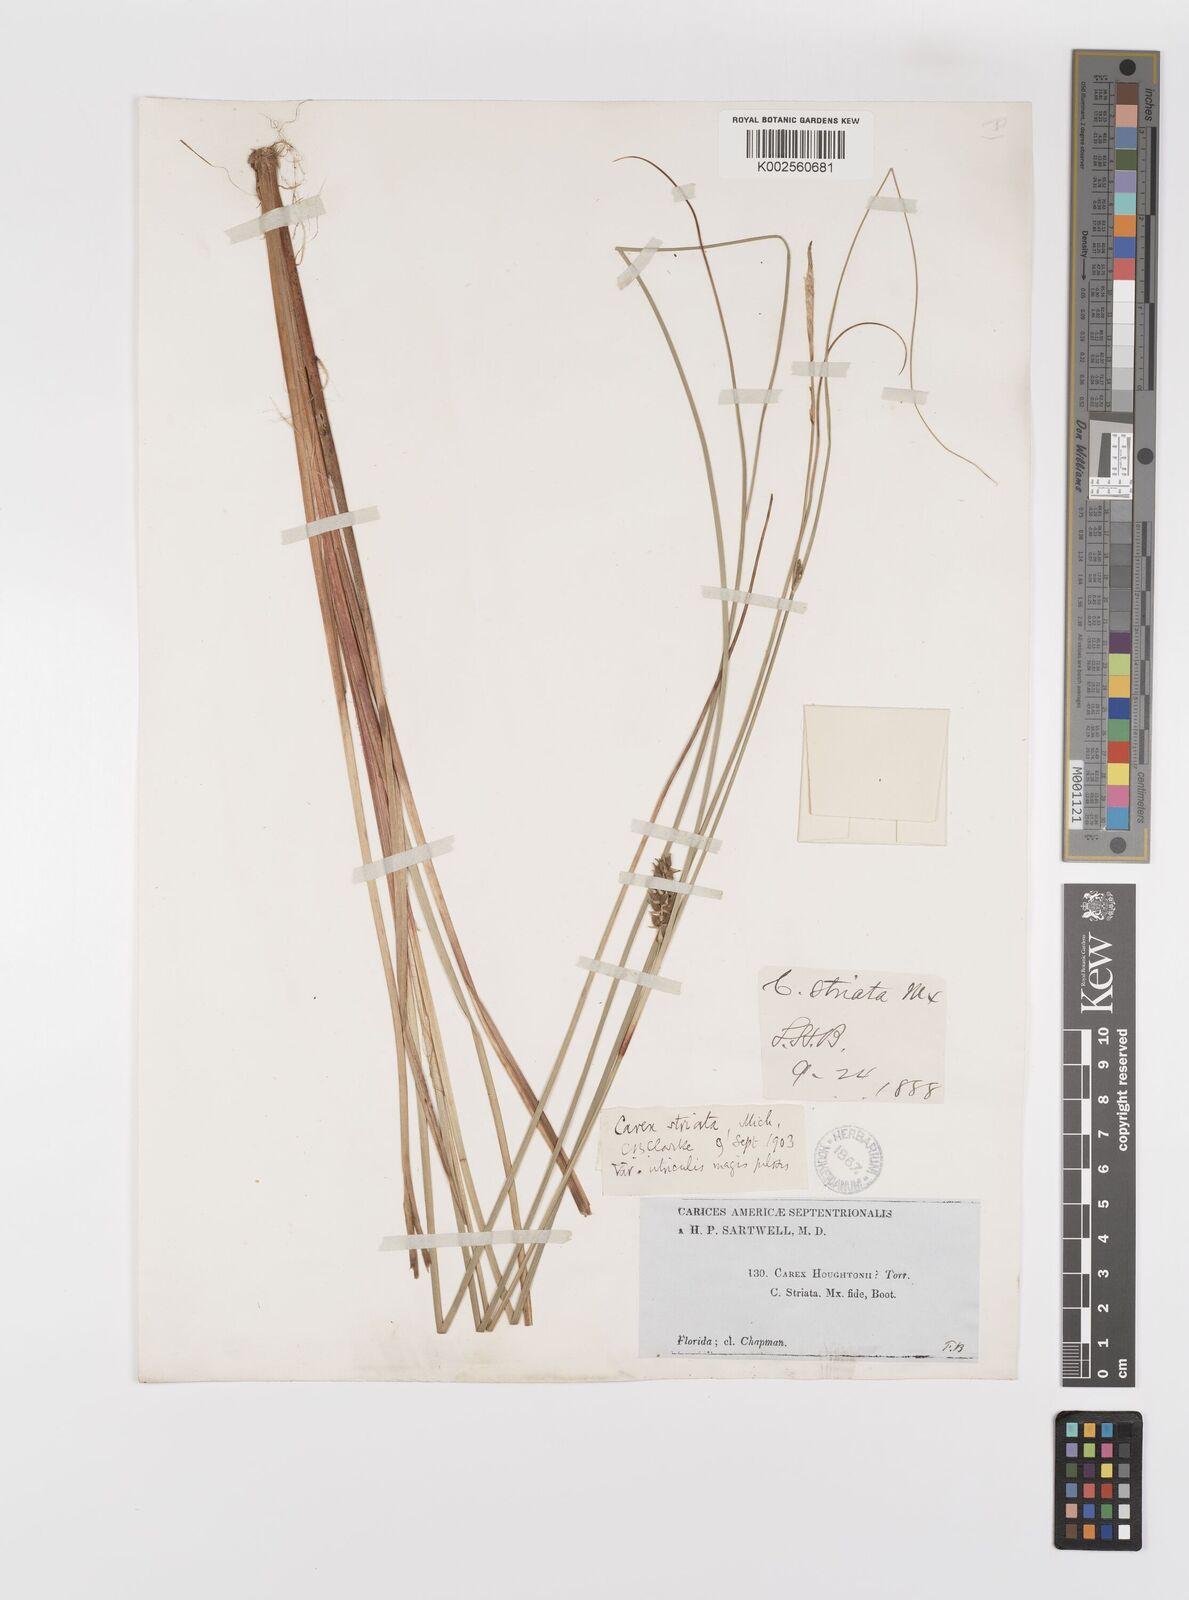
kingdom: Plantae
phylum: Tracheophyta
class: Liliopsida
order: Poales
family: Cyperaceae
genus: Carex
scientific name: Carex striata
